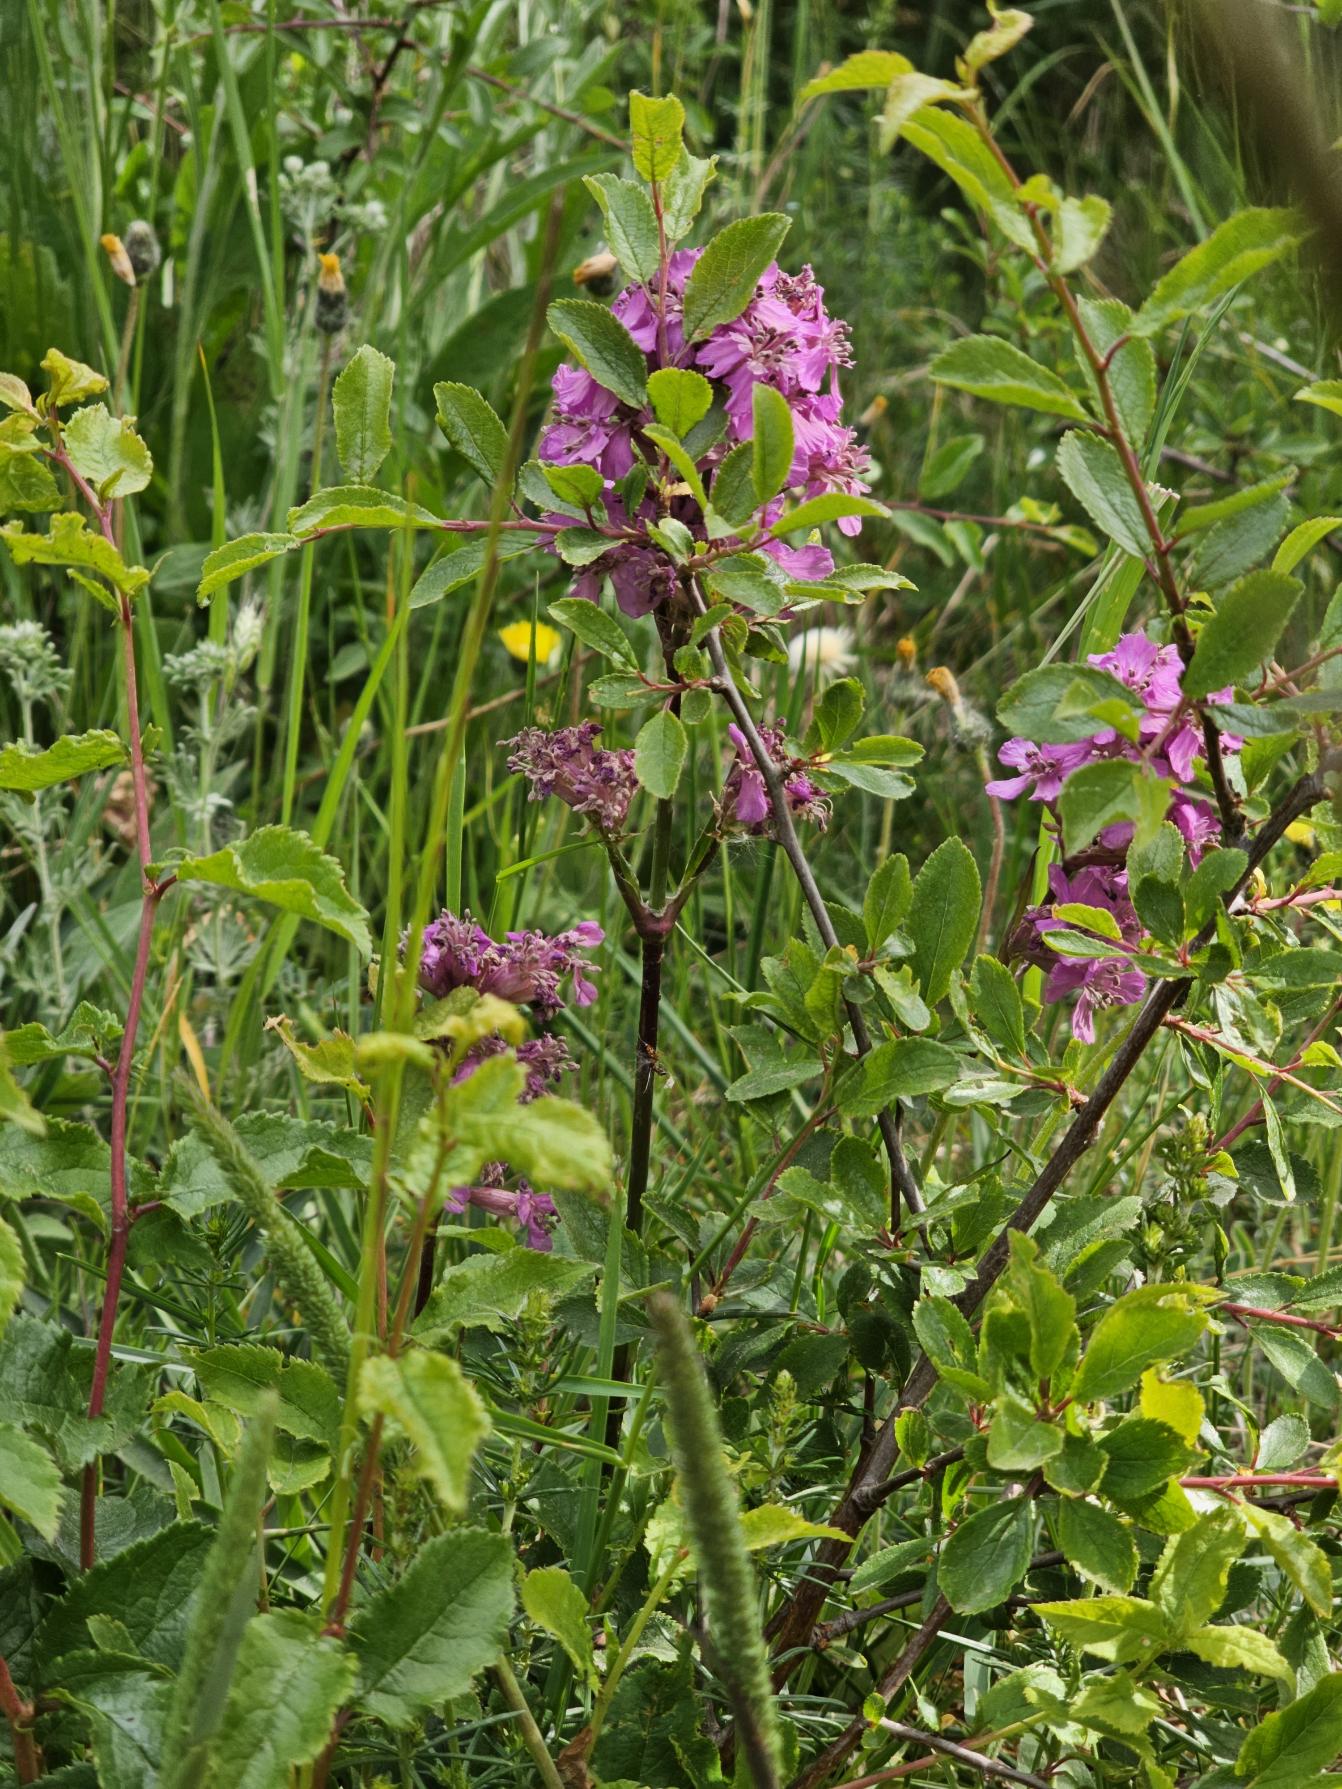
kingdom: Plantae
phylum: Tracheophyta
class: Magnoliopsida
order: Caryophyllales
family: Caryophyllaceae
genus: Viscaria
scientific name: Viscaria vulgaris
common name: Tjærenellike
